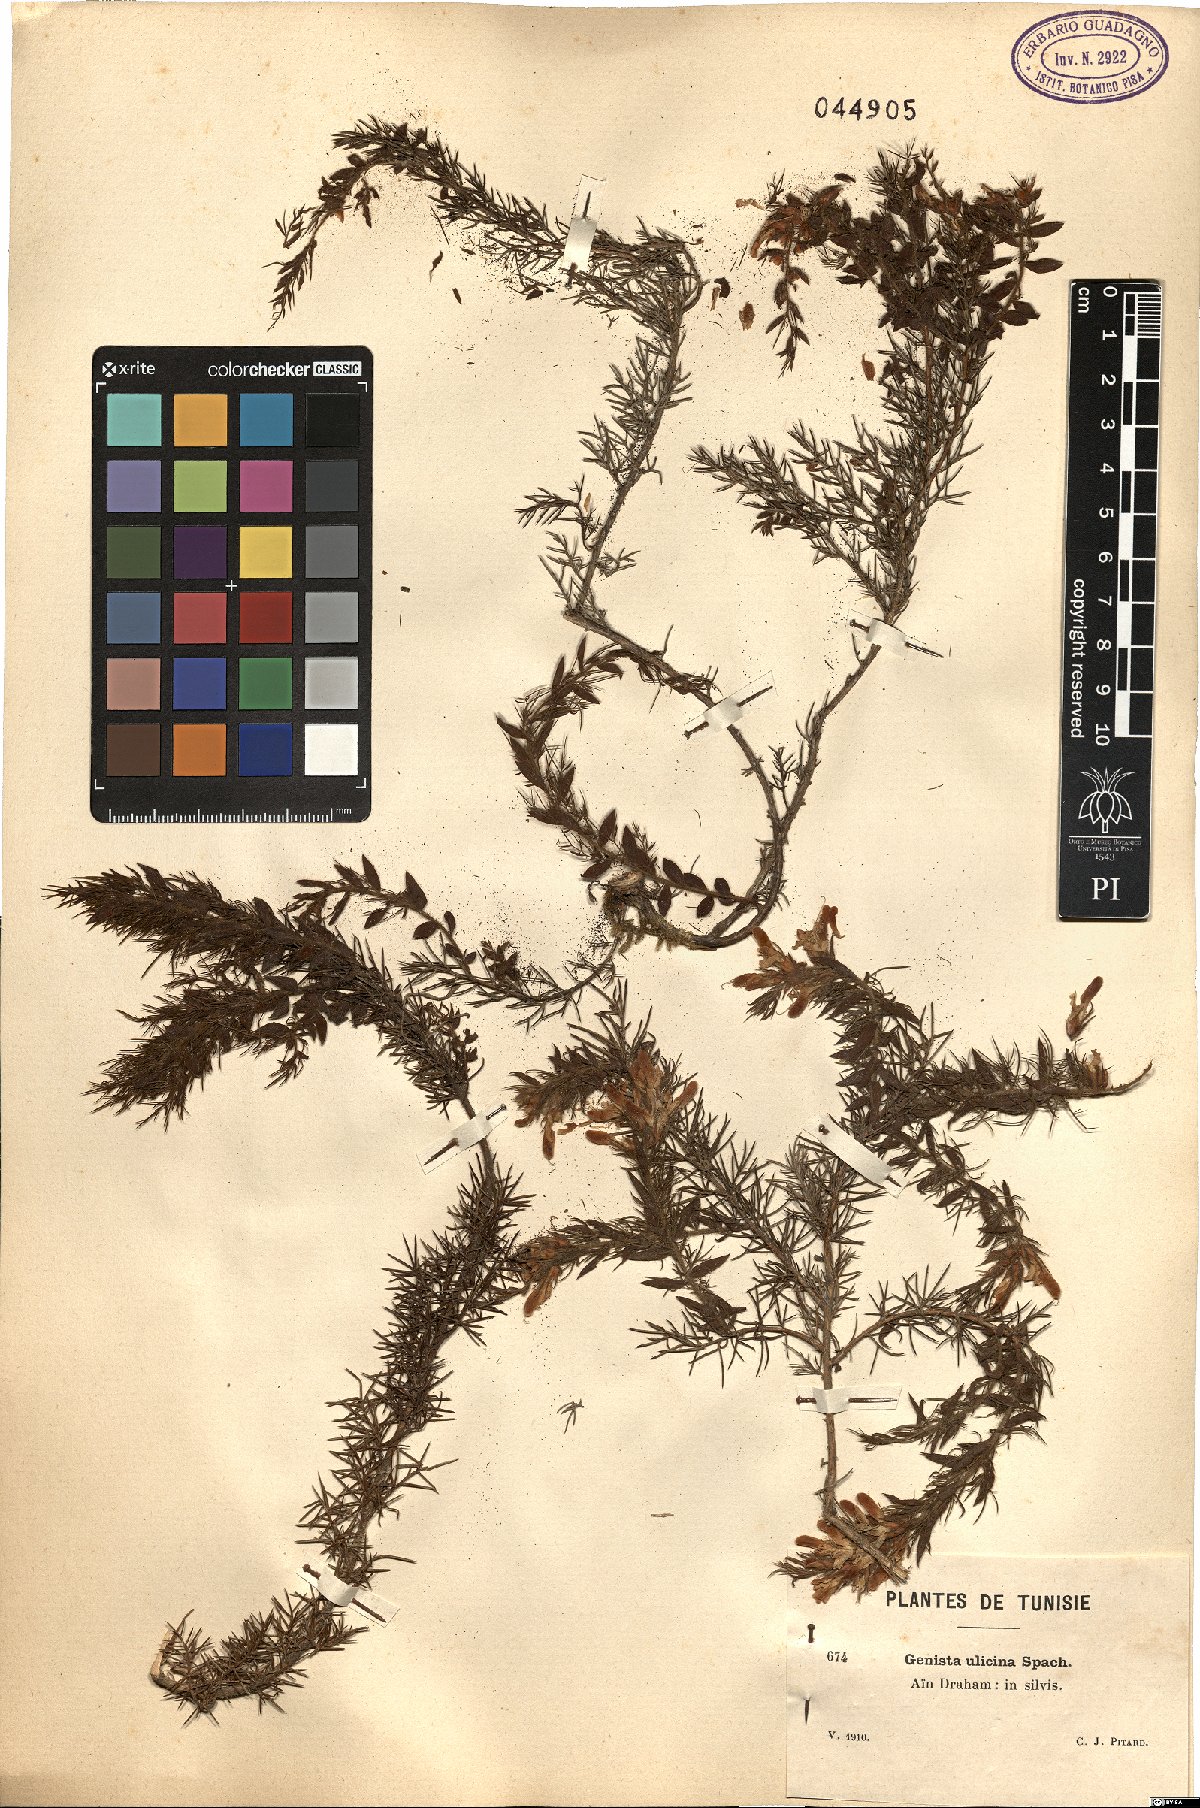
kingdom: Plantae
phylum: Tracheophyta
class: Magnoliopsida
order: Fabales
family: Fabaceae
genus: Genista
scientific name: Genista ulicina
